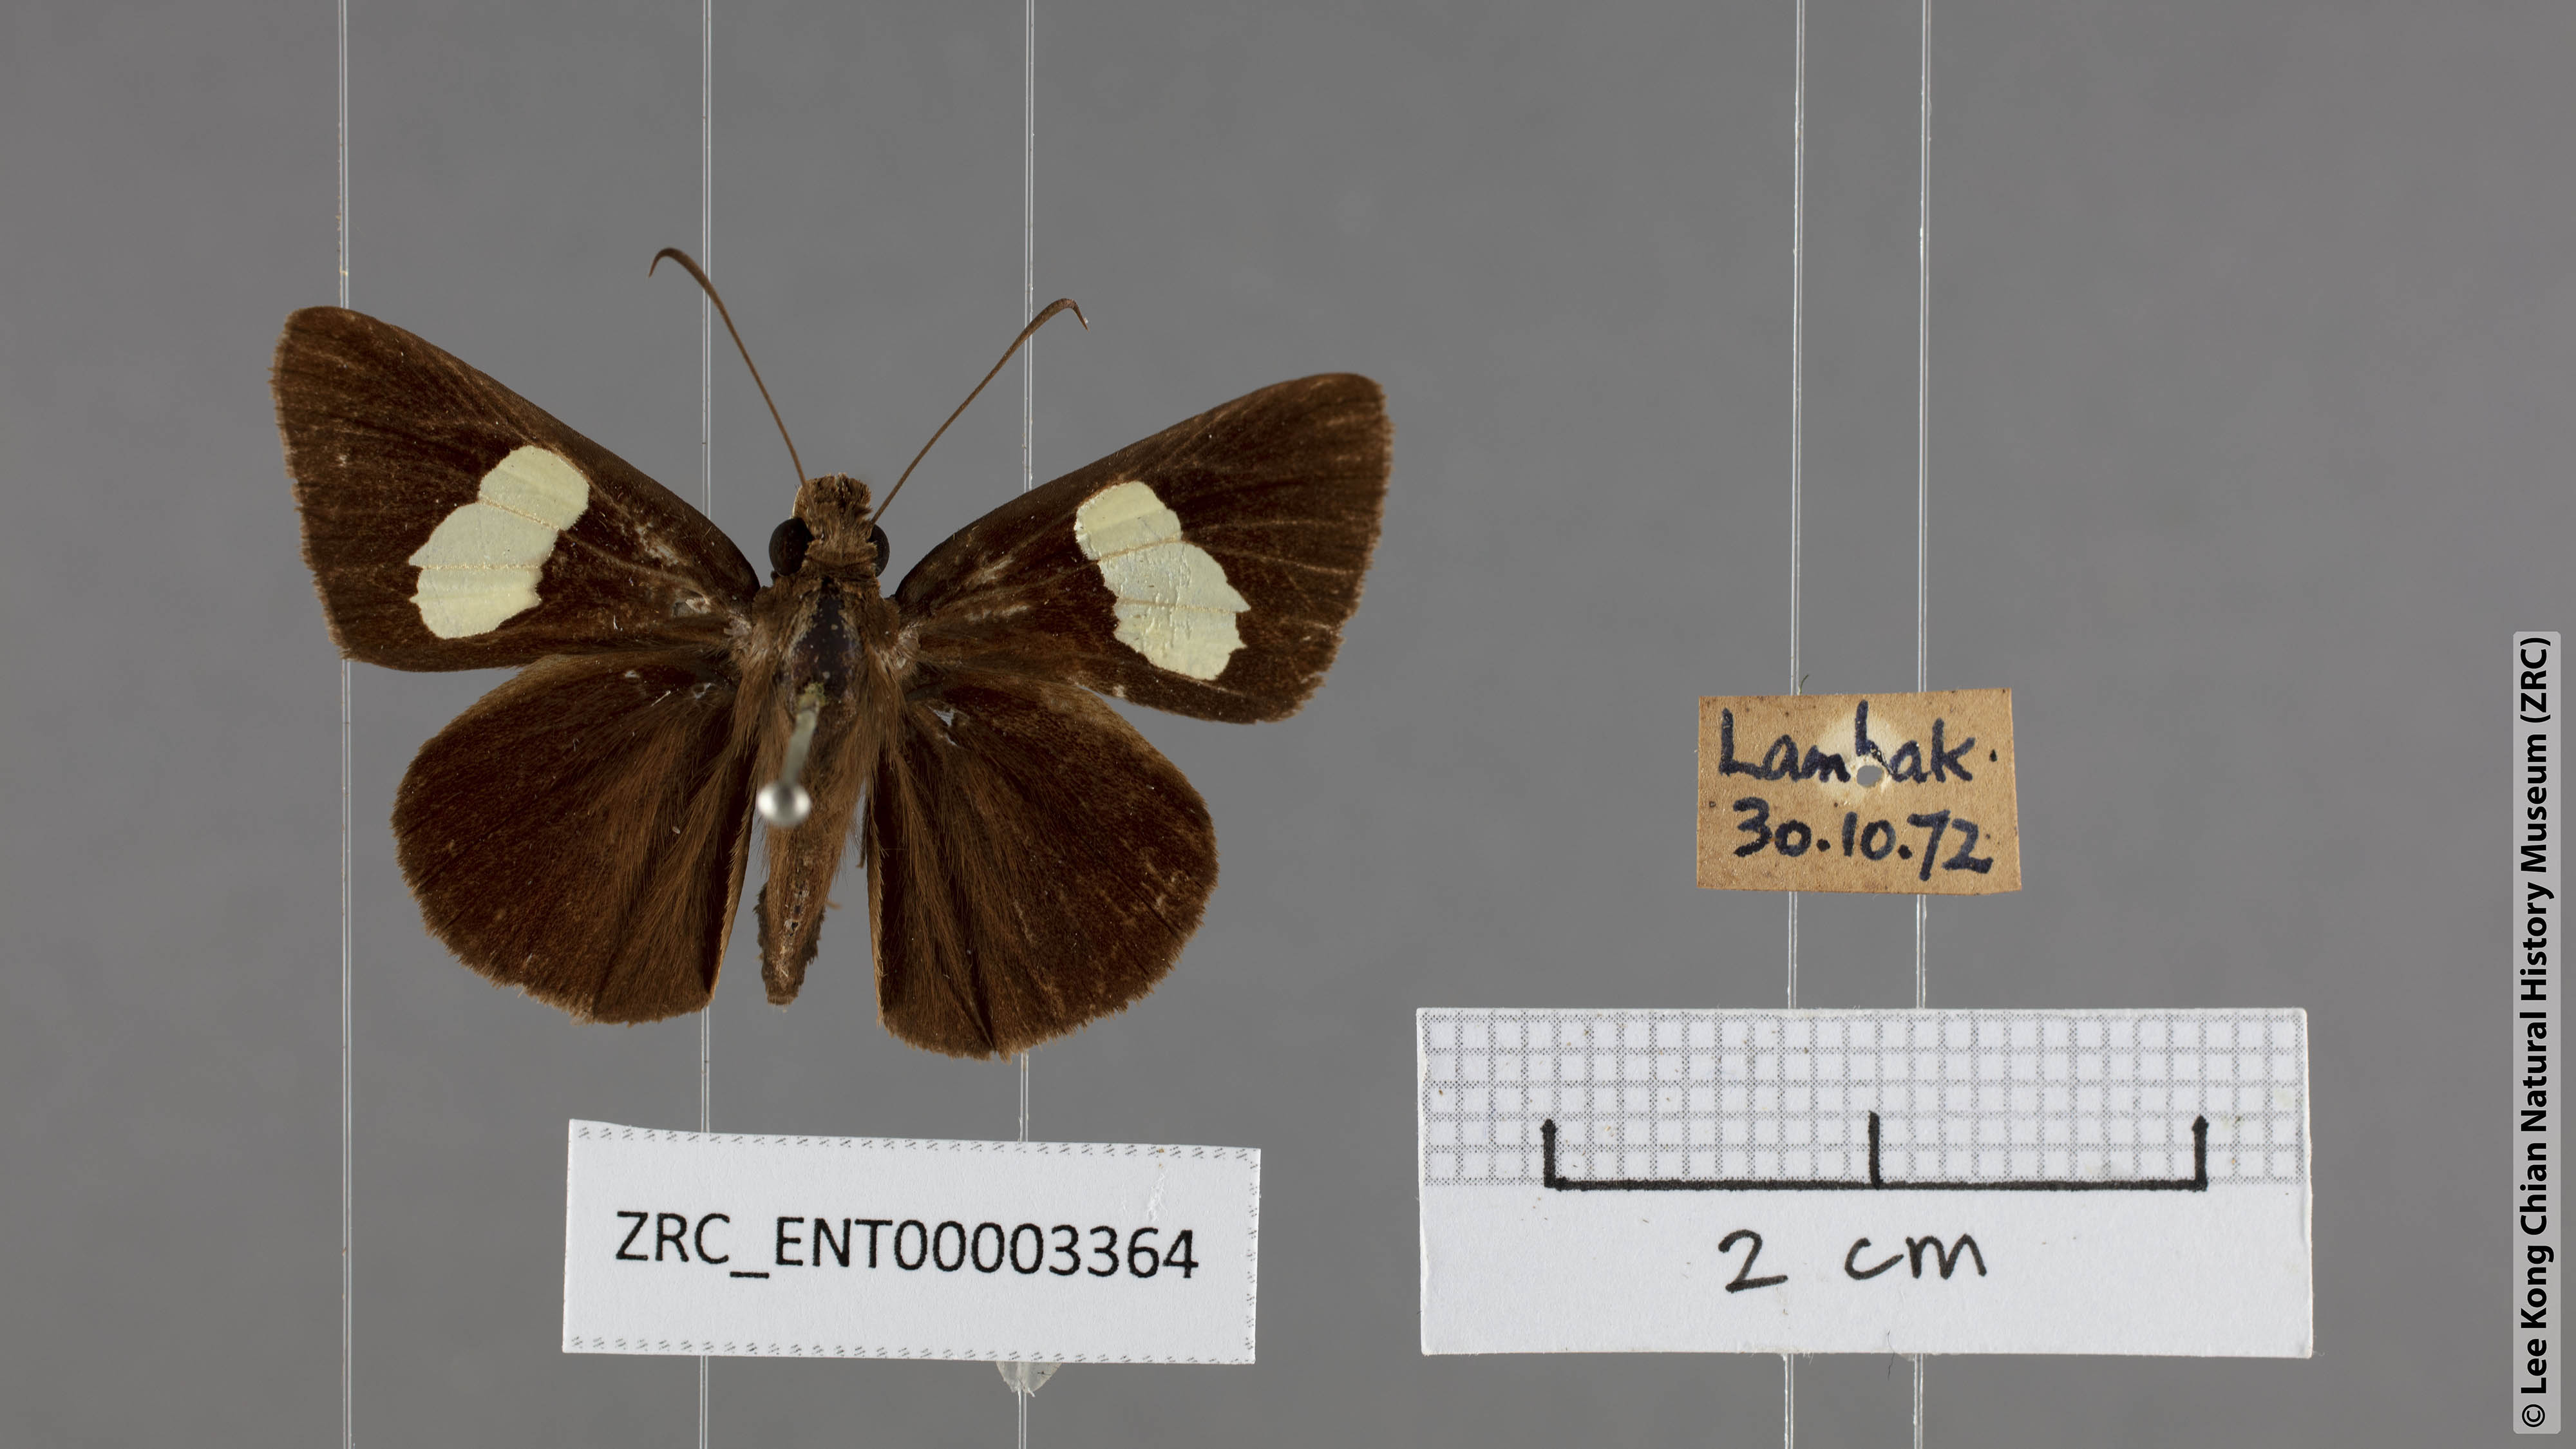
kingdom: Animalia
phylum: Arthropoda
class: Insecta
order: Lepidoptera
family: Hesperiidae
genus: Notocrypta
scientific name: Notocrypta pria
